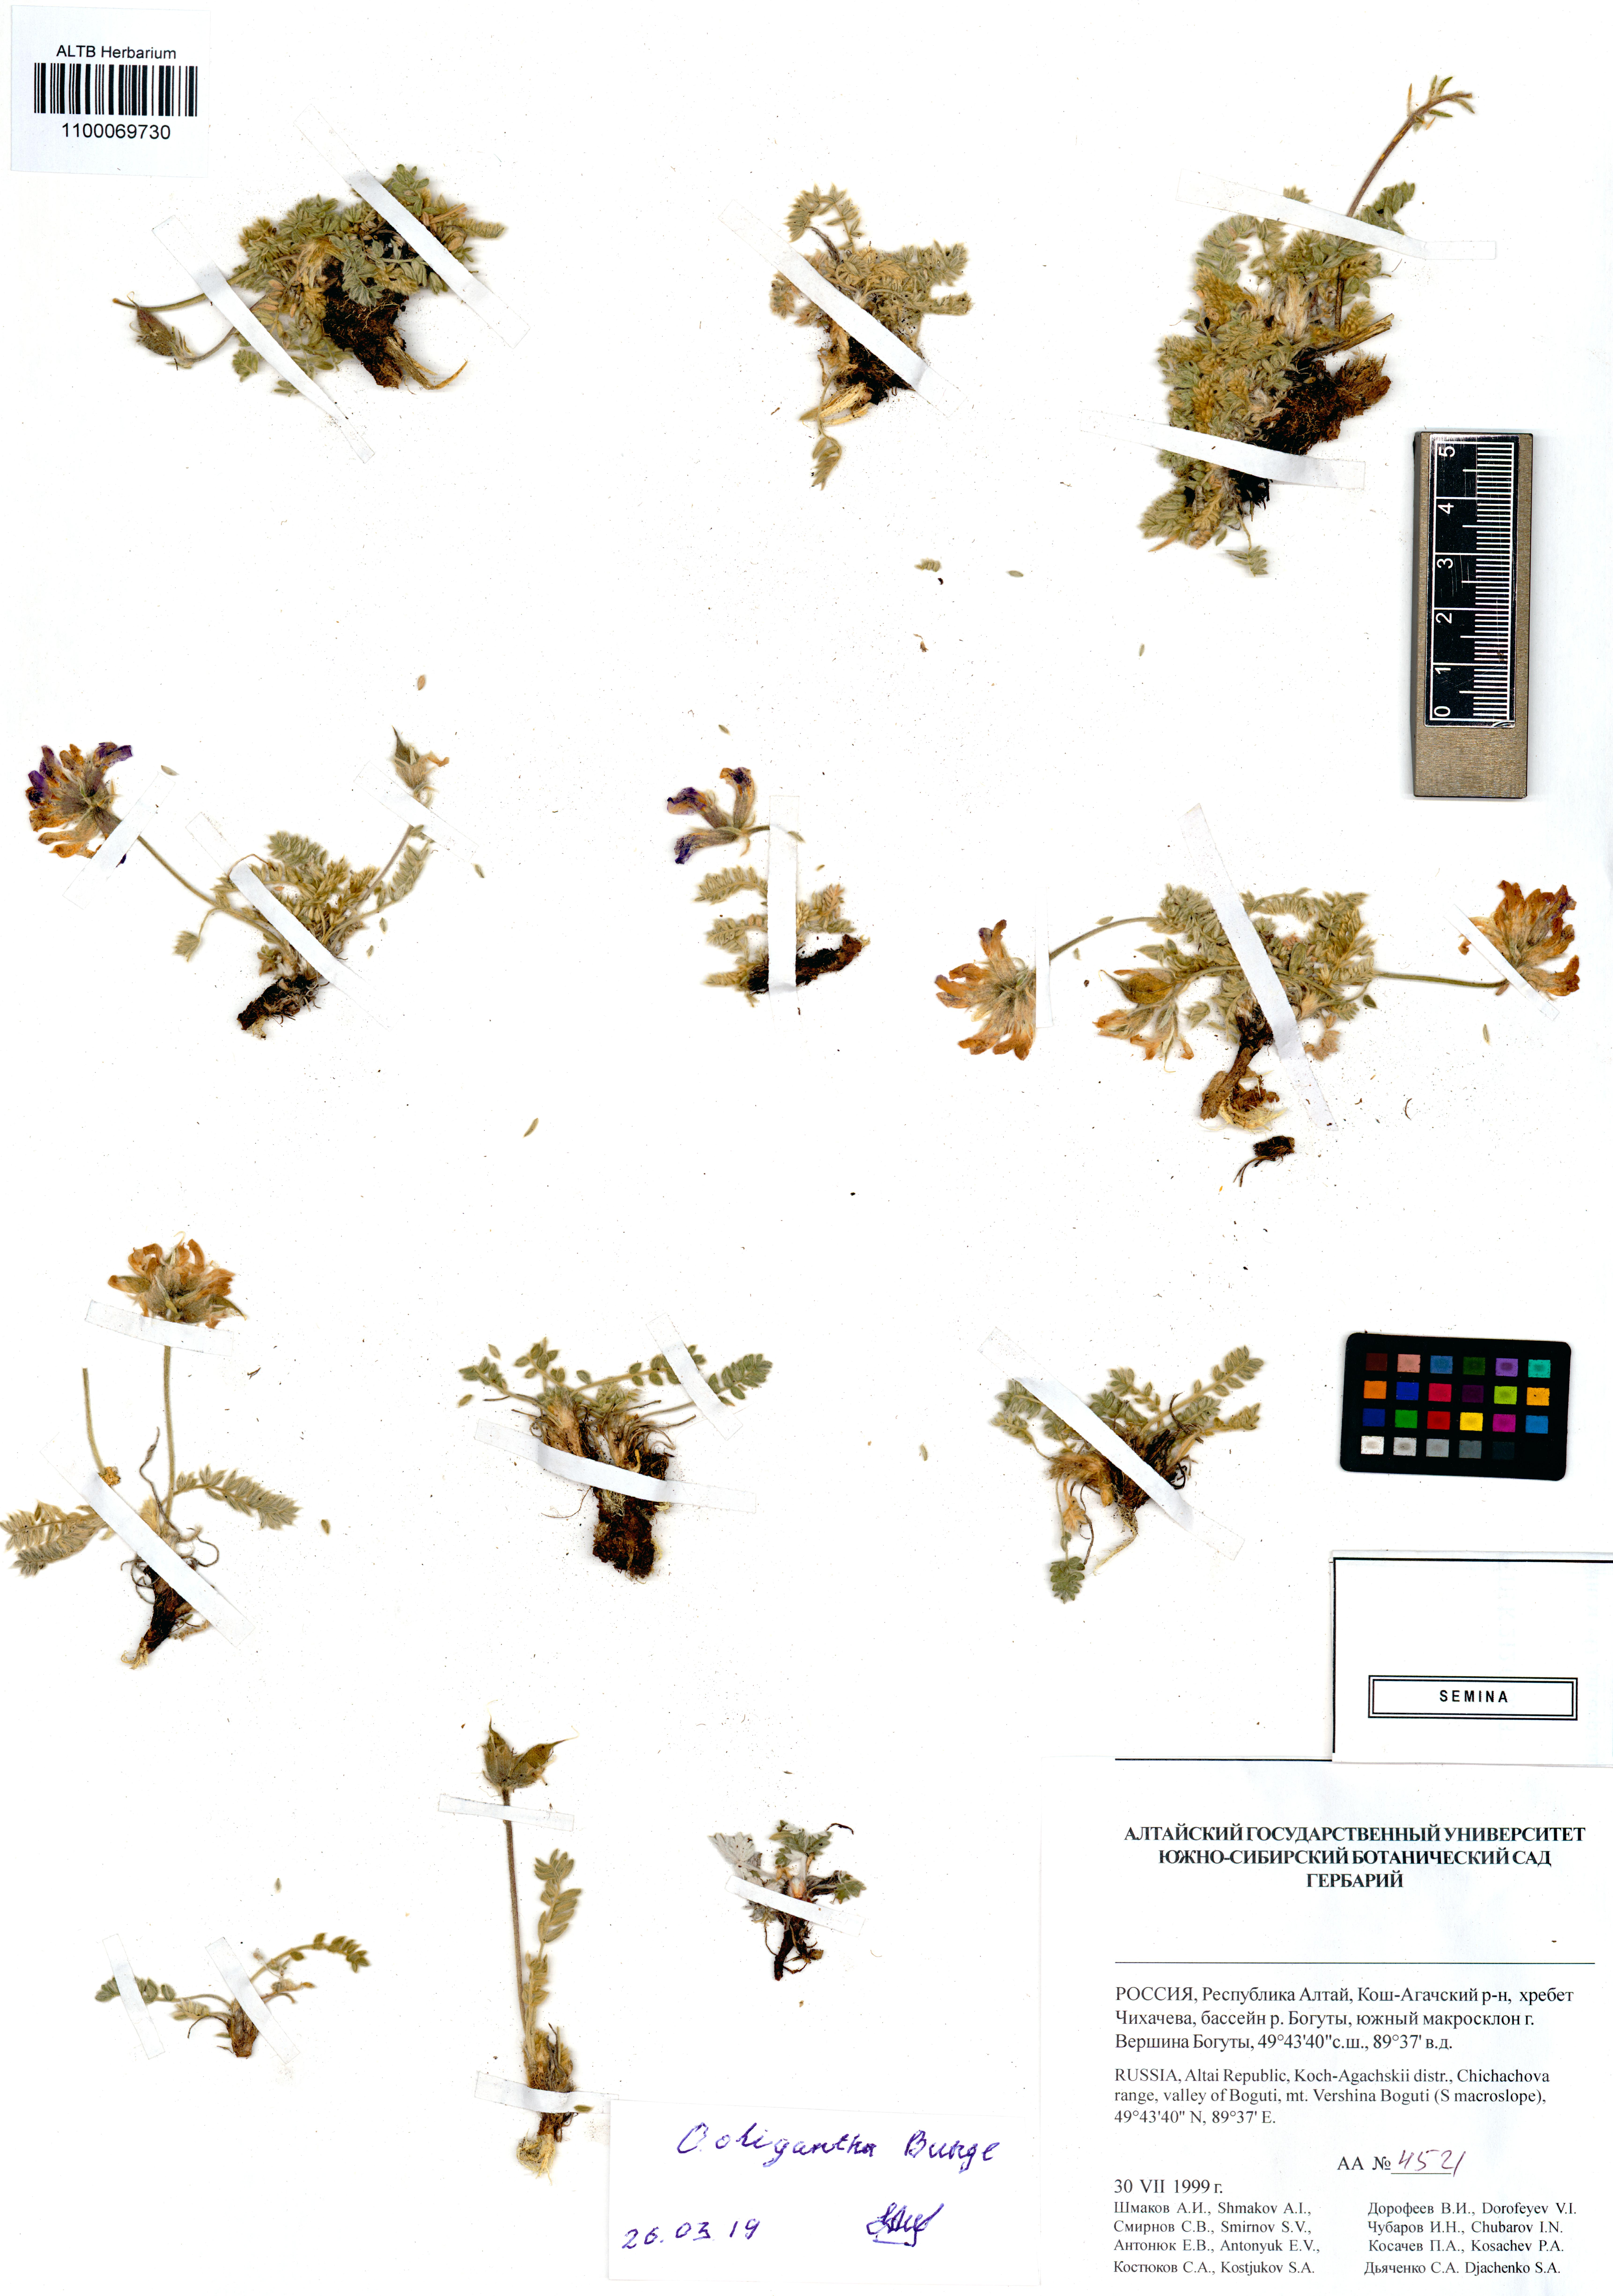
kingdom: Plantae
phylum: Tracheophyta
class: Magnoliopsida
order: Fabales
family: Fabaceae
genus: Oxytropis
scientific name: Oxytropis oligantha
